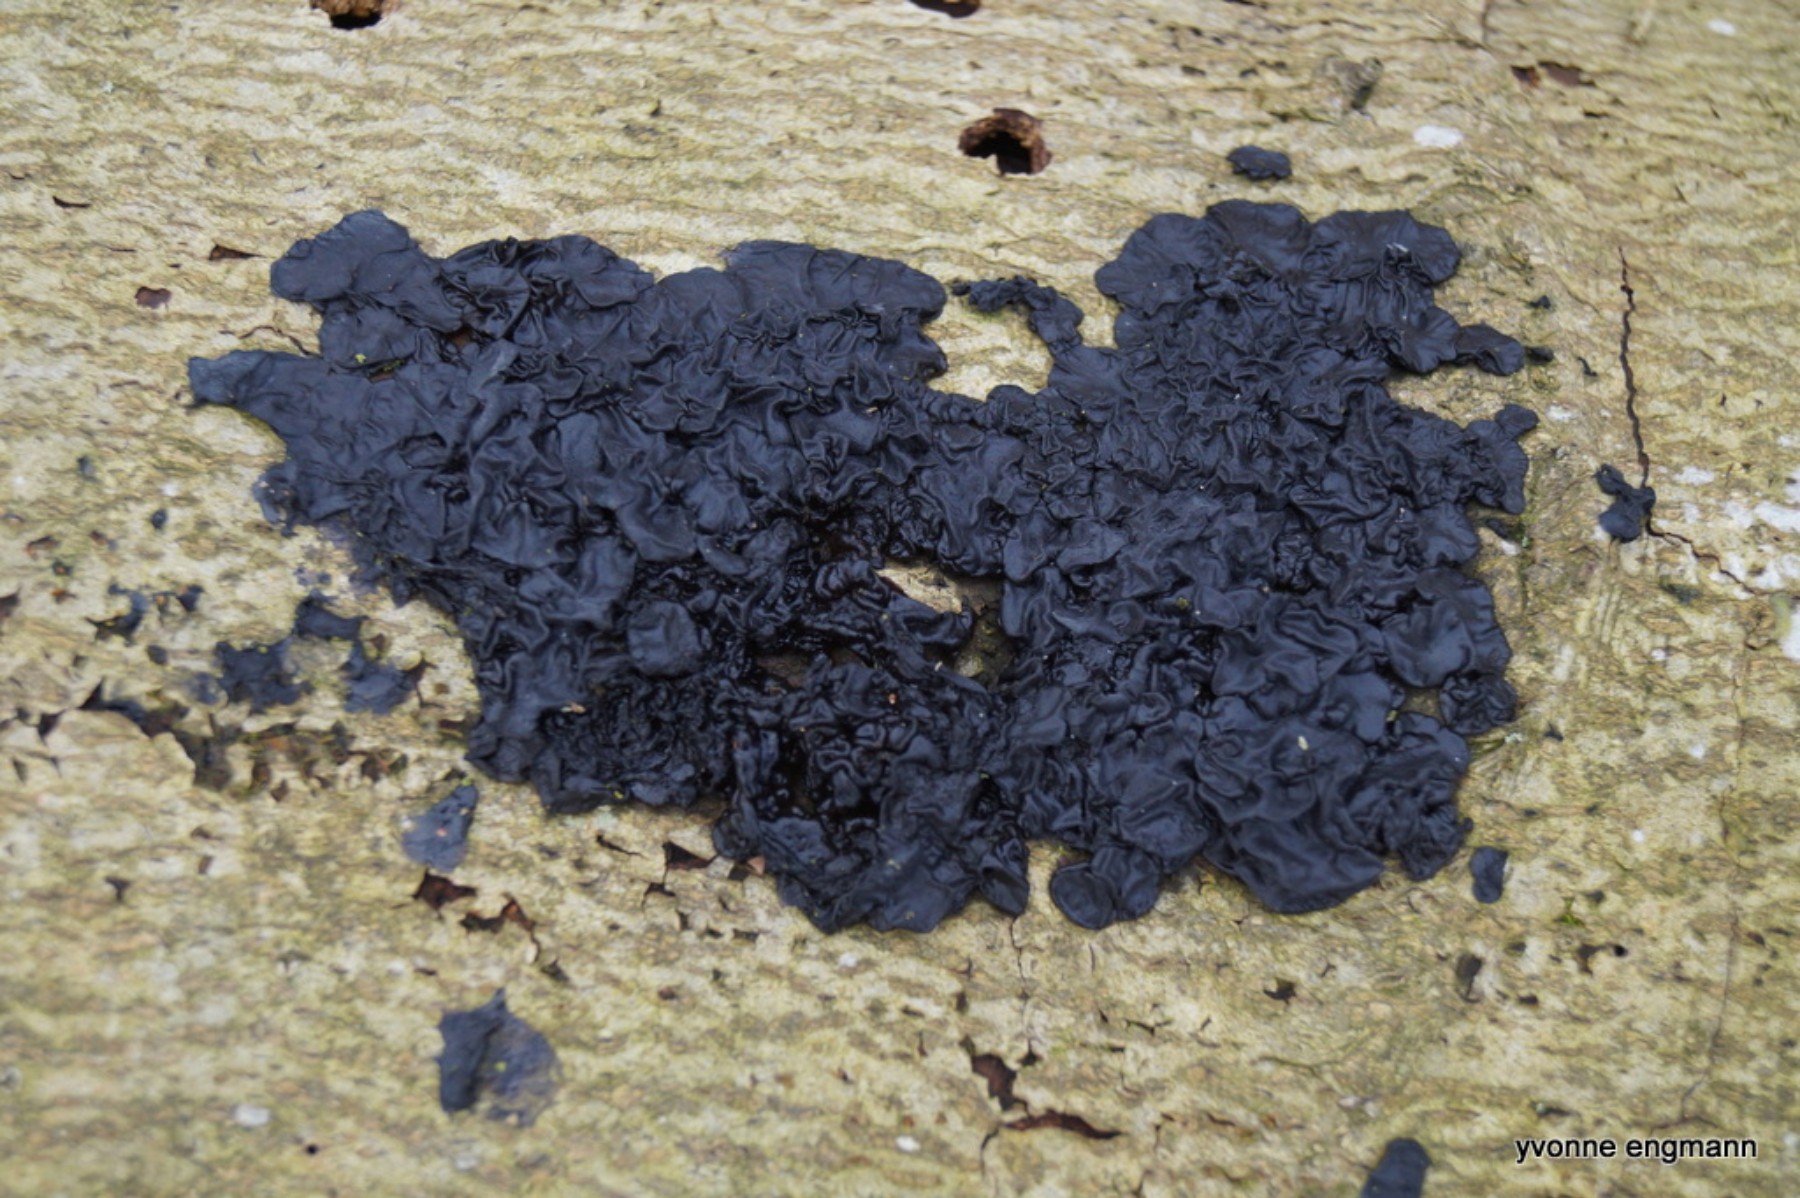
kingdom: Fungi
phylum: Basidiomycota
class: Agaricomycetes
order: Auriculariales
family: Auriculariaceae
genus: Exidia
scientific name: Exidia nigricans
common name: almindelig bævretop
